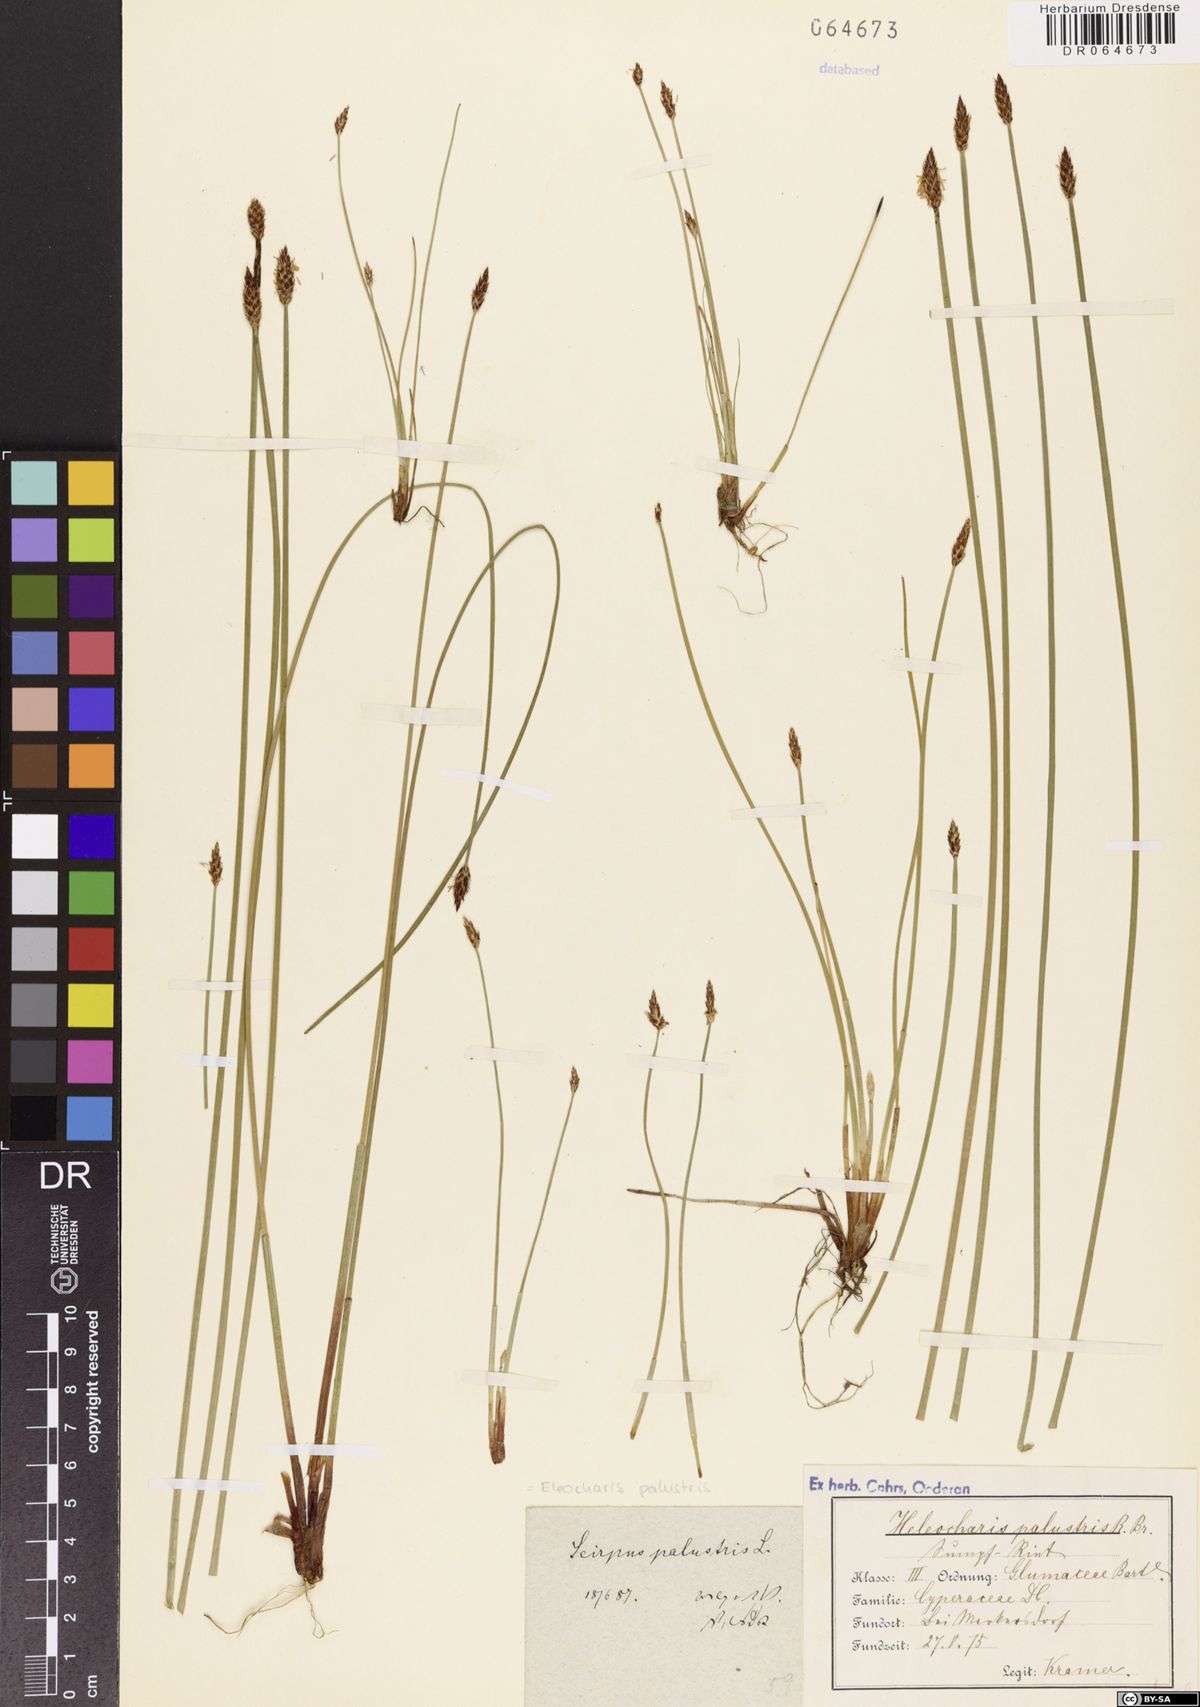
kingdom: Plantae
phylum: Tracheophyta
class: Liliopsida
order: Poales
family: Cyperaceae
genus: Eleocharis
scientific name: Eleocharis palustris
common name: Common spike-rush
